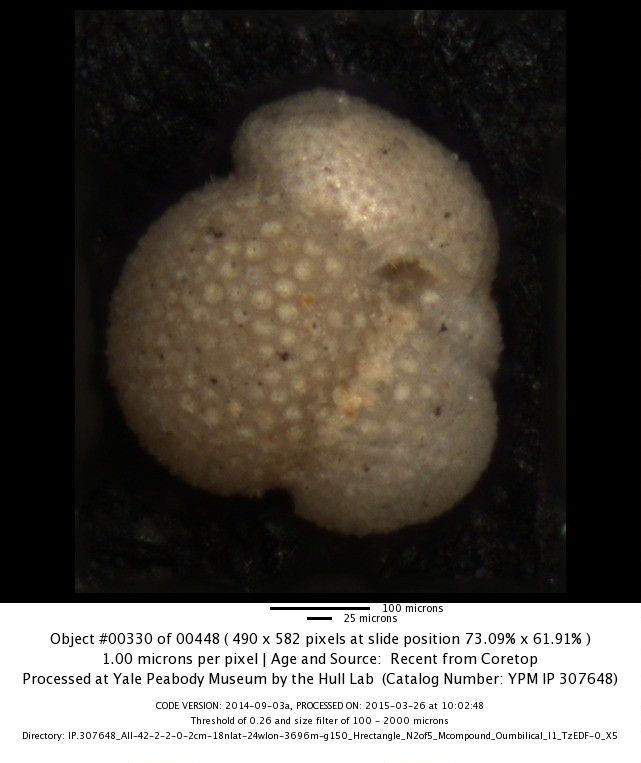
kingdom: Chromista
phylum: Foraminifera
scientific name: Foraminifera
